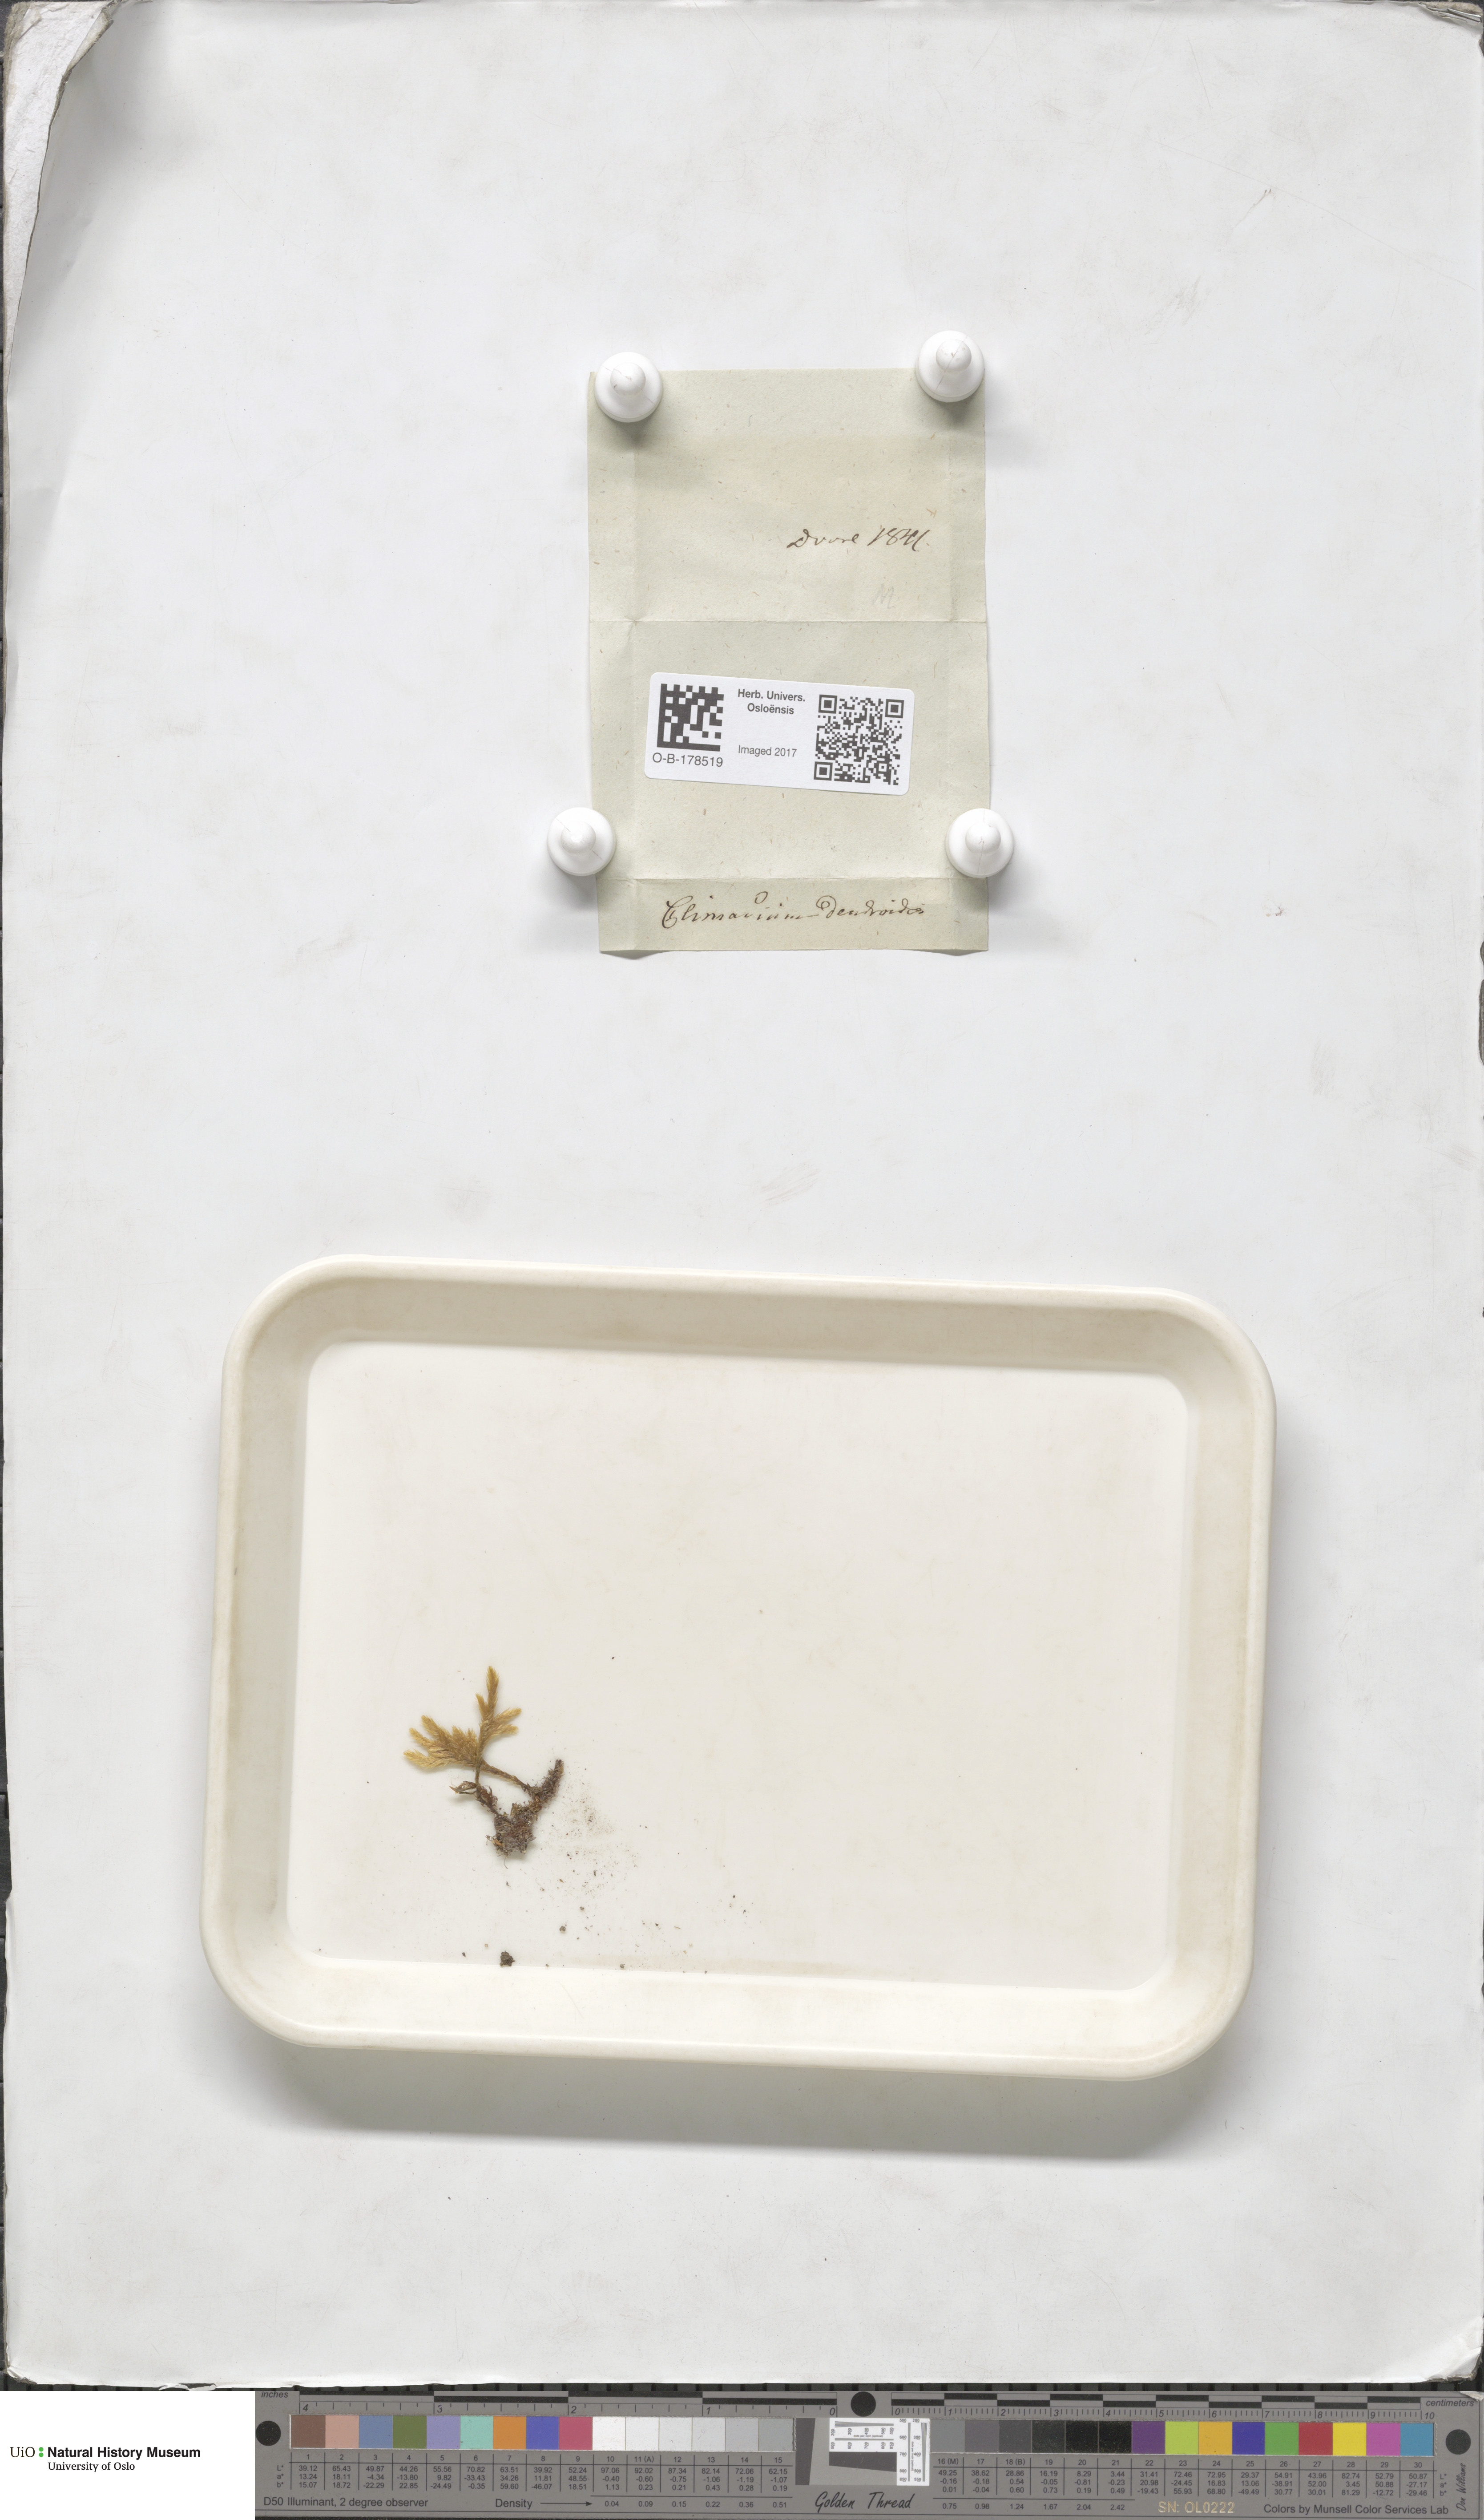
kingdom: Plantae
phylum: Bryophyta
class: Bryopsida
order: Hypnales
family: Climaciaceae
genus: Climacium
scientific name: Climacium dendroides
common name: Northern tree moss
